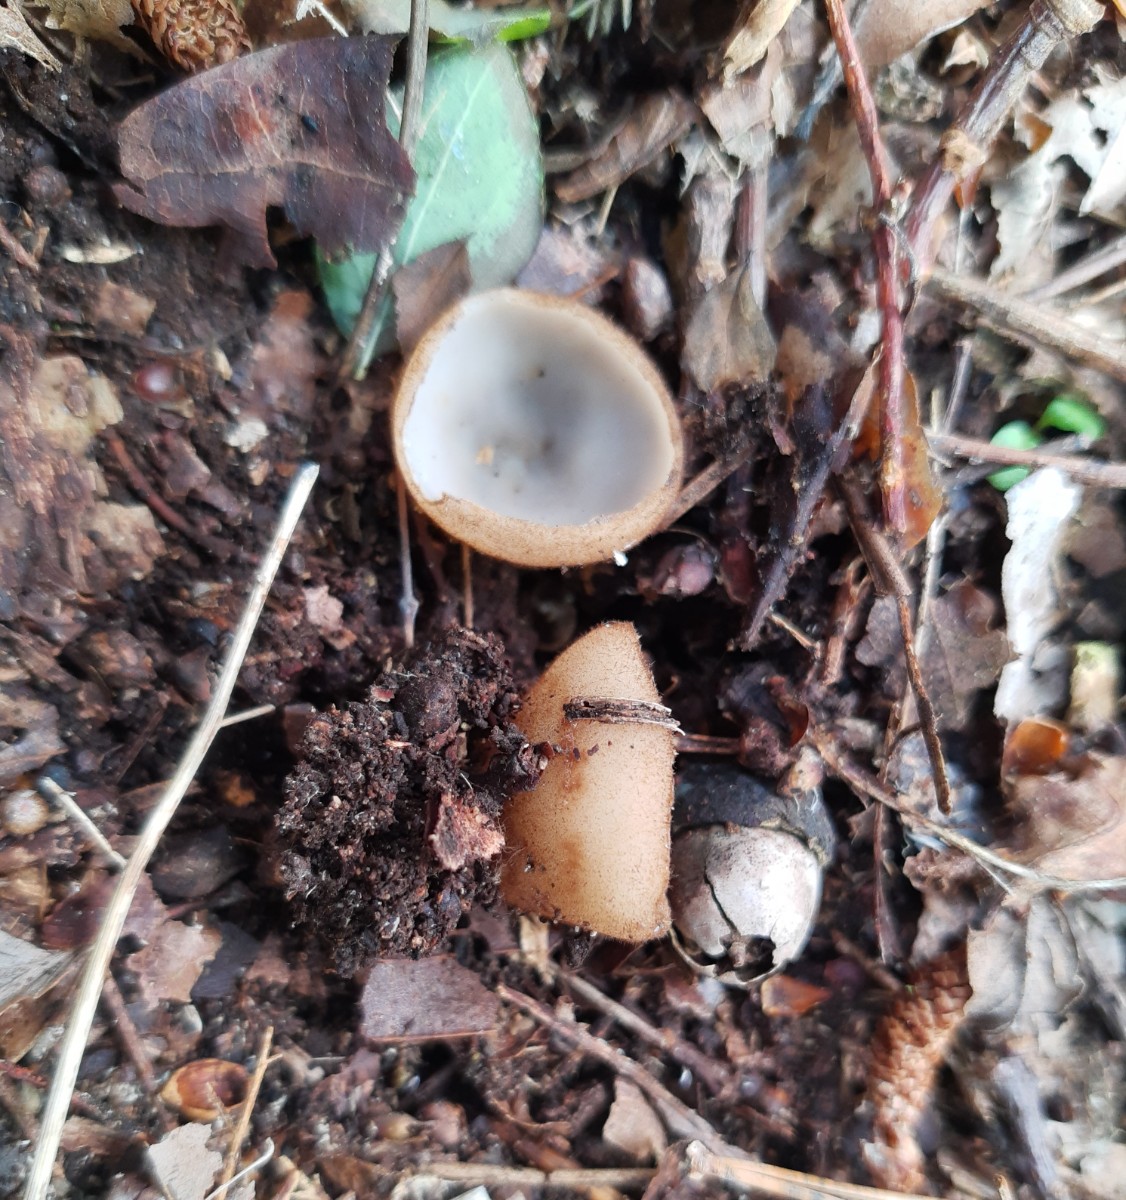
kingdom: Fungi
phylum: Ascomycota
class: Pezizomycetes
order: Pezizales
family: Pyronemataceae
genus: Humaria
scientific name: Humaria hemisphaerica
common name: halvkugleformet børstebæger
